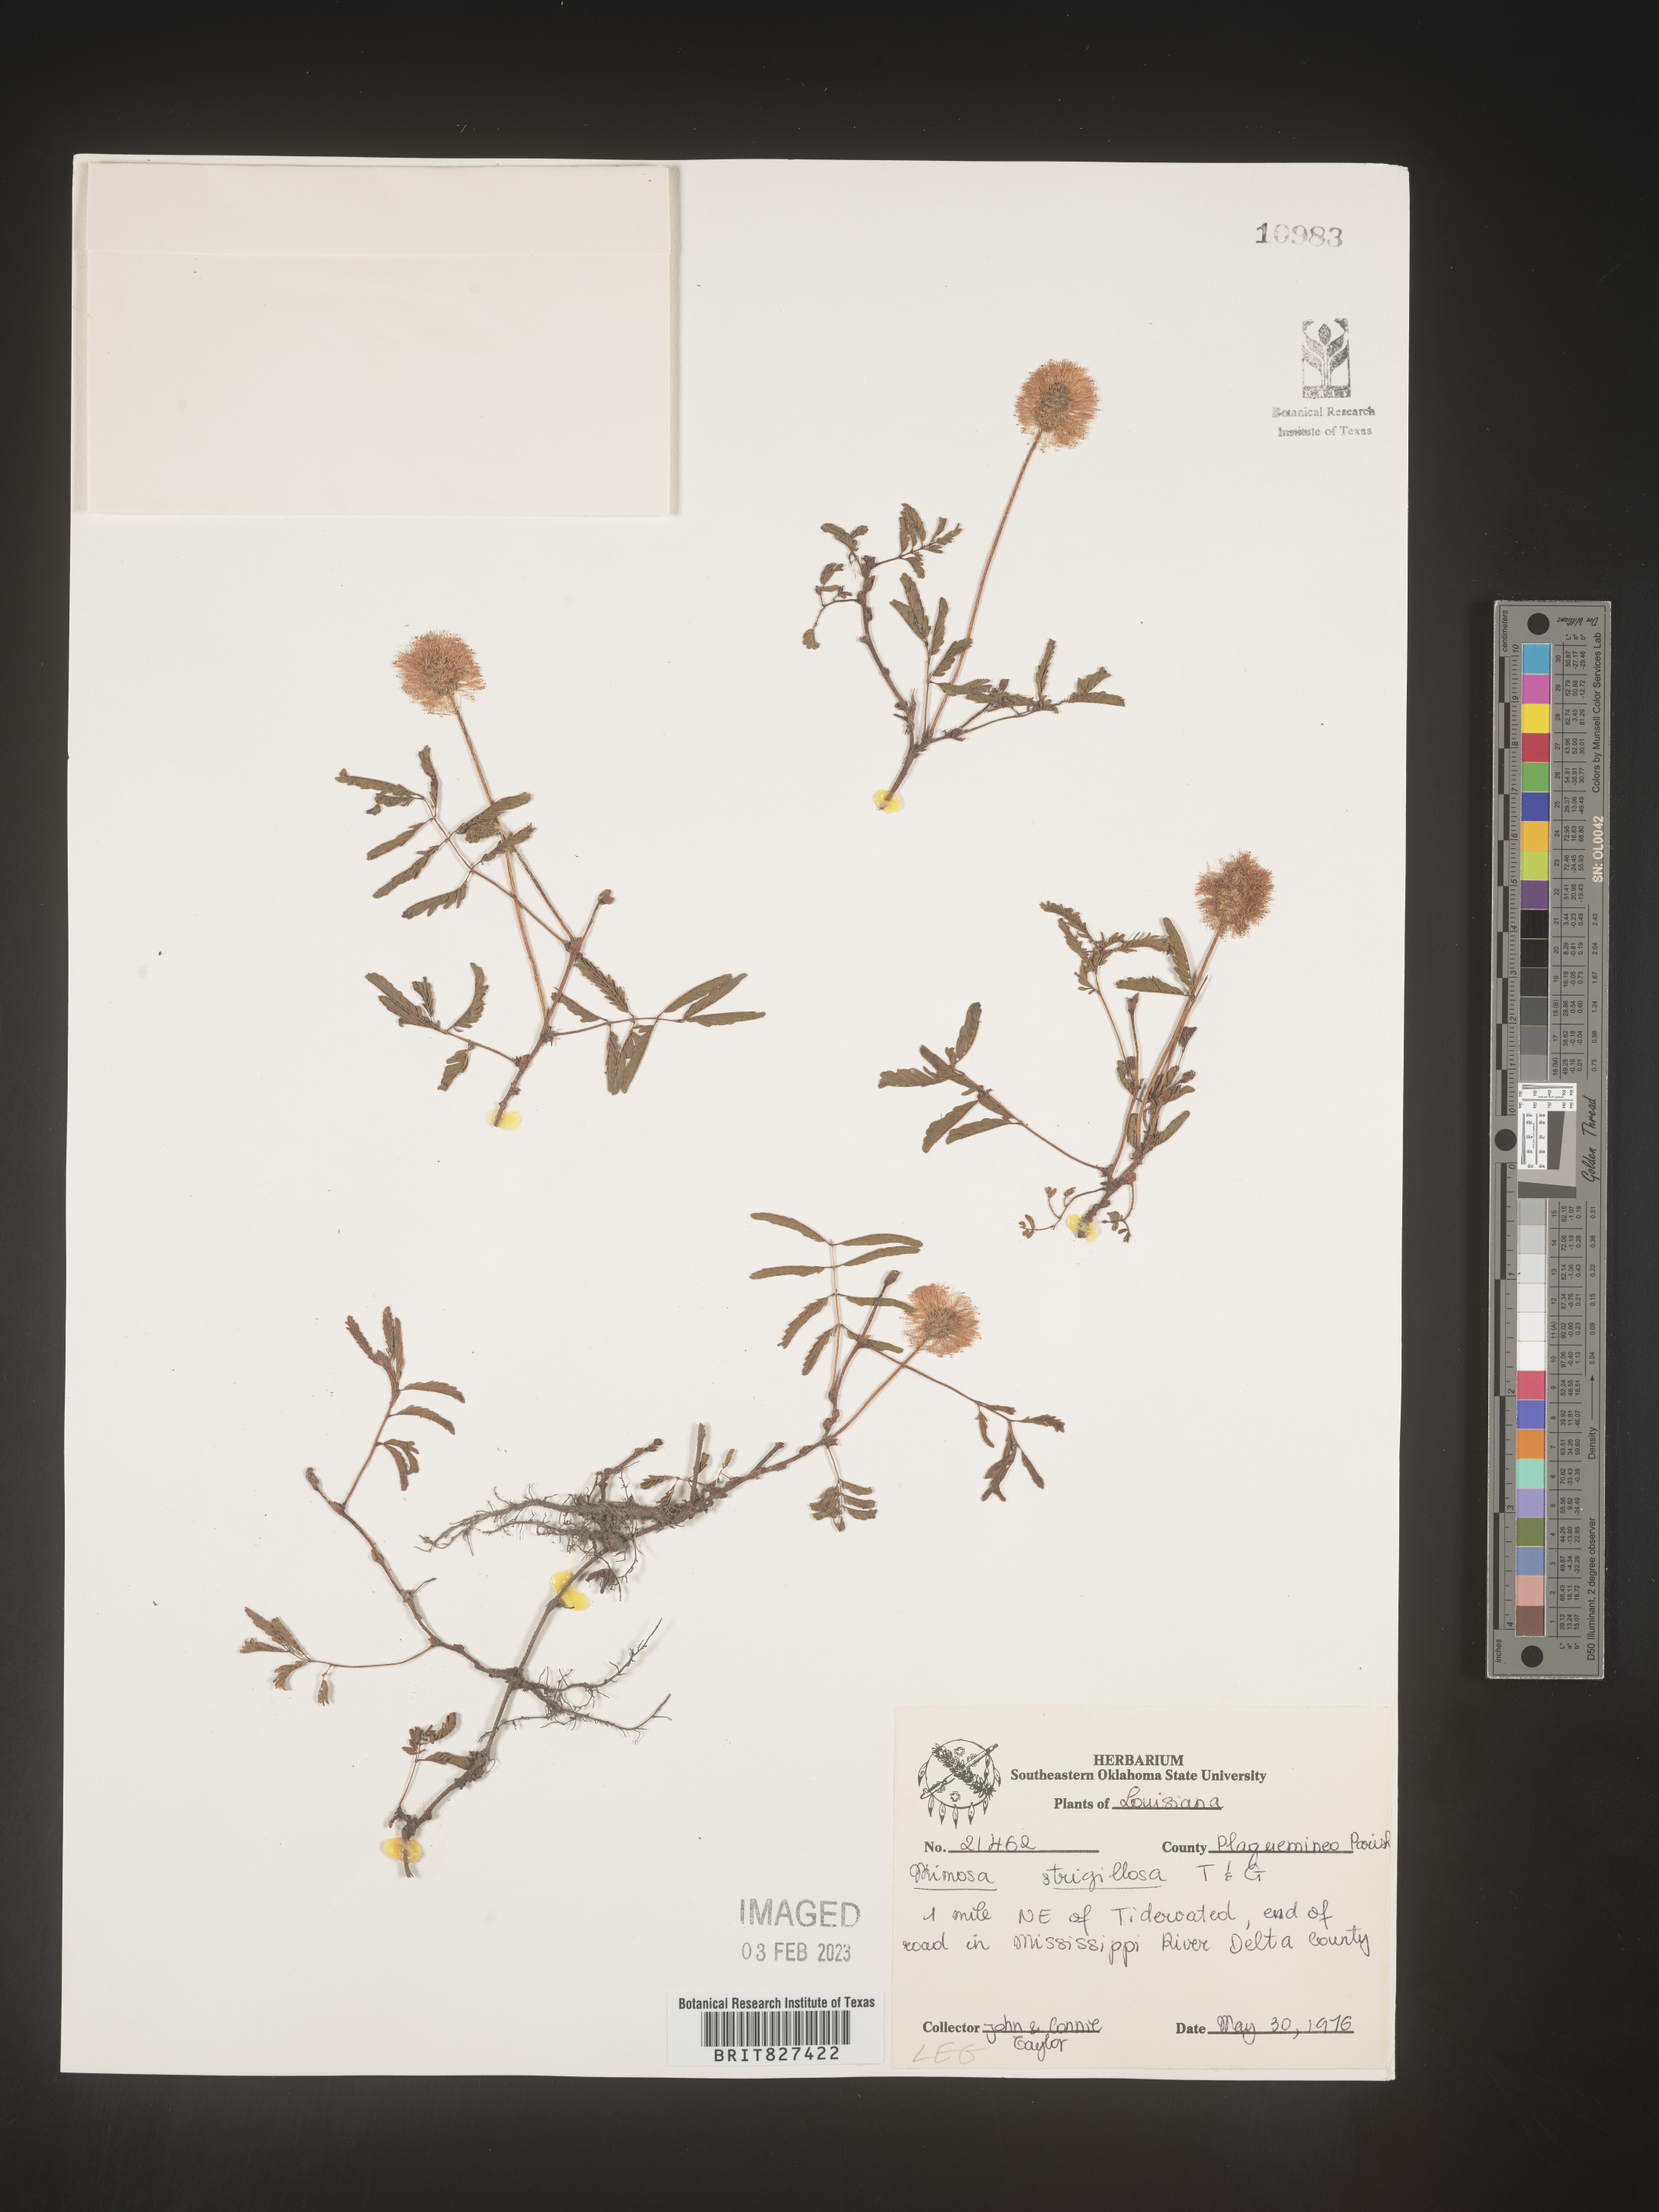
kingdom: Plantae
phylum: Tracheophyta
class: Magnoliopsida
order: Fabales
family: Fabaceae
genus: Mimosa
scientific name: Mimosa strigillosa
